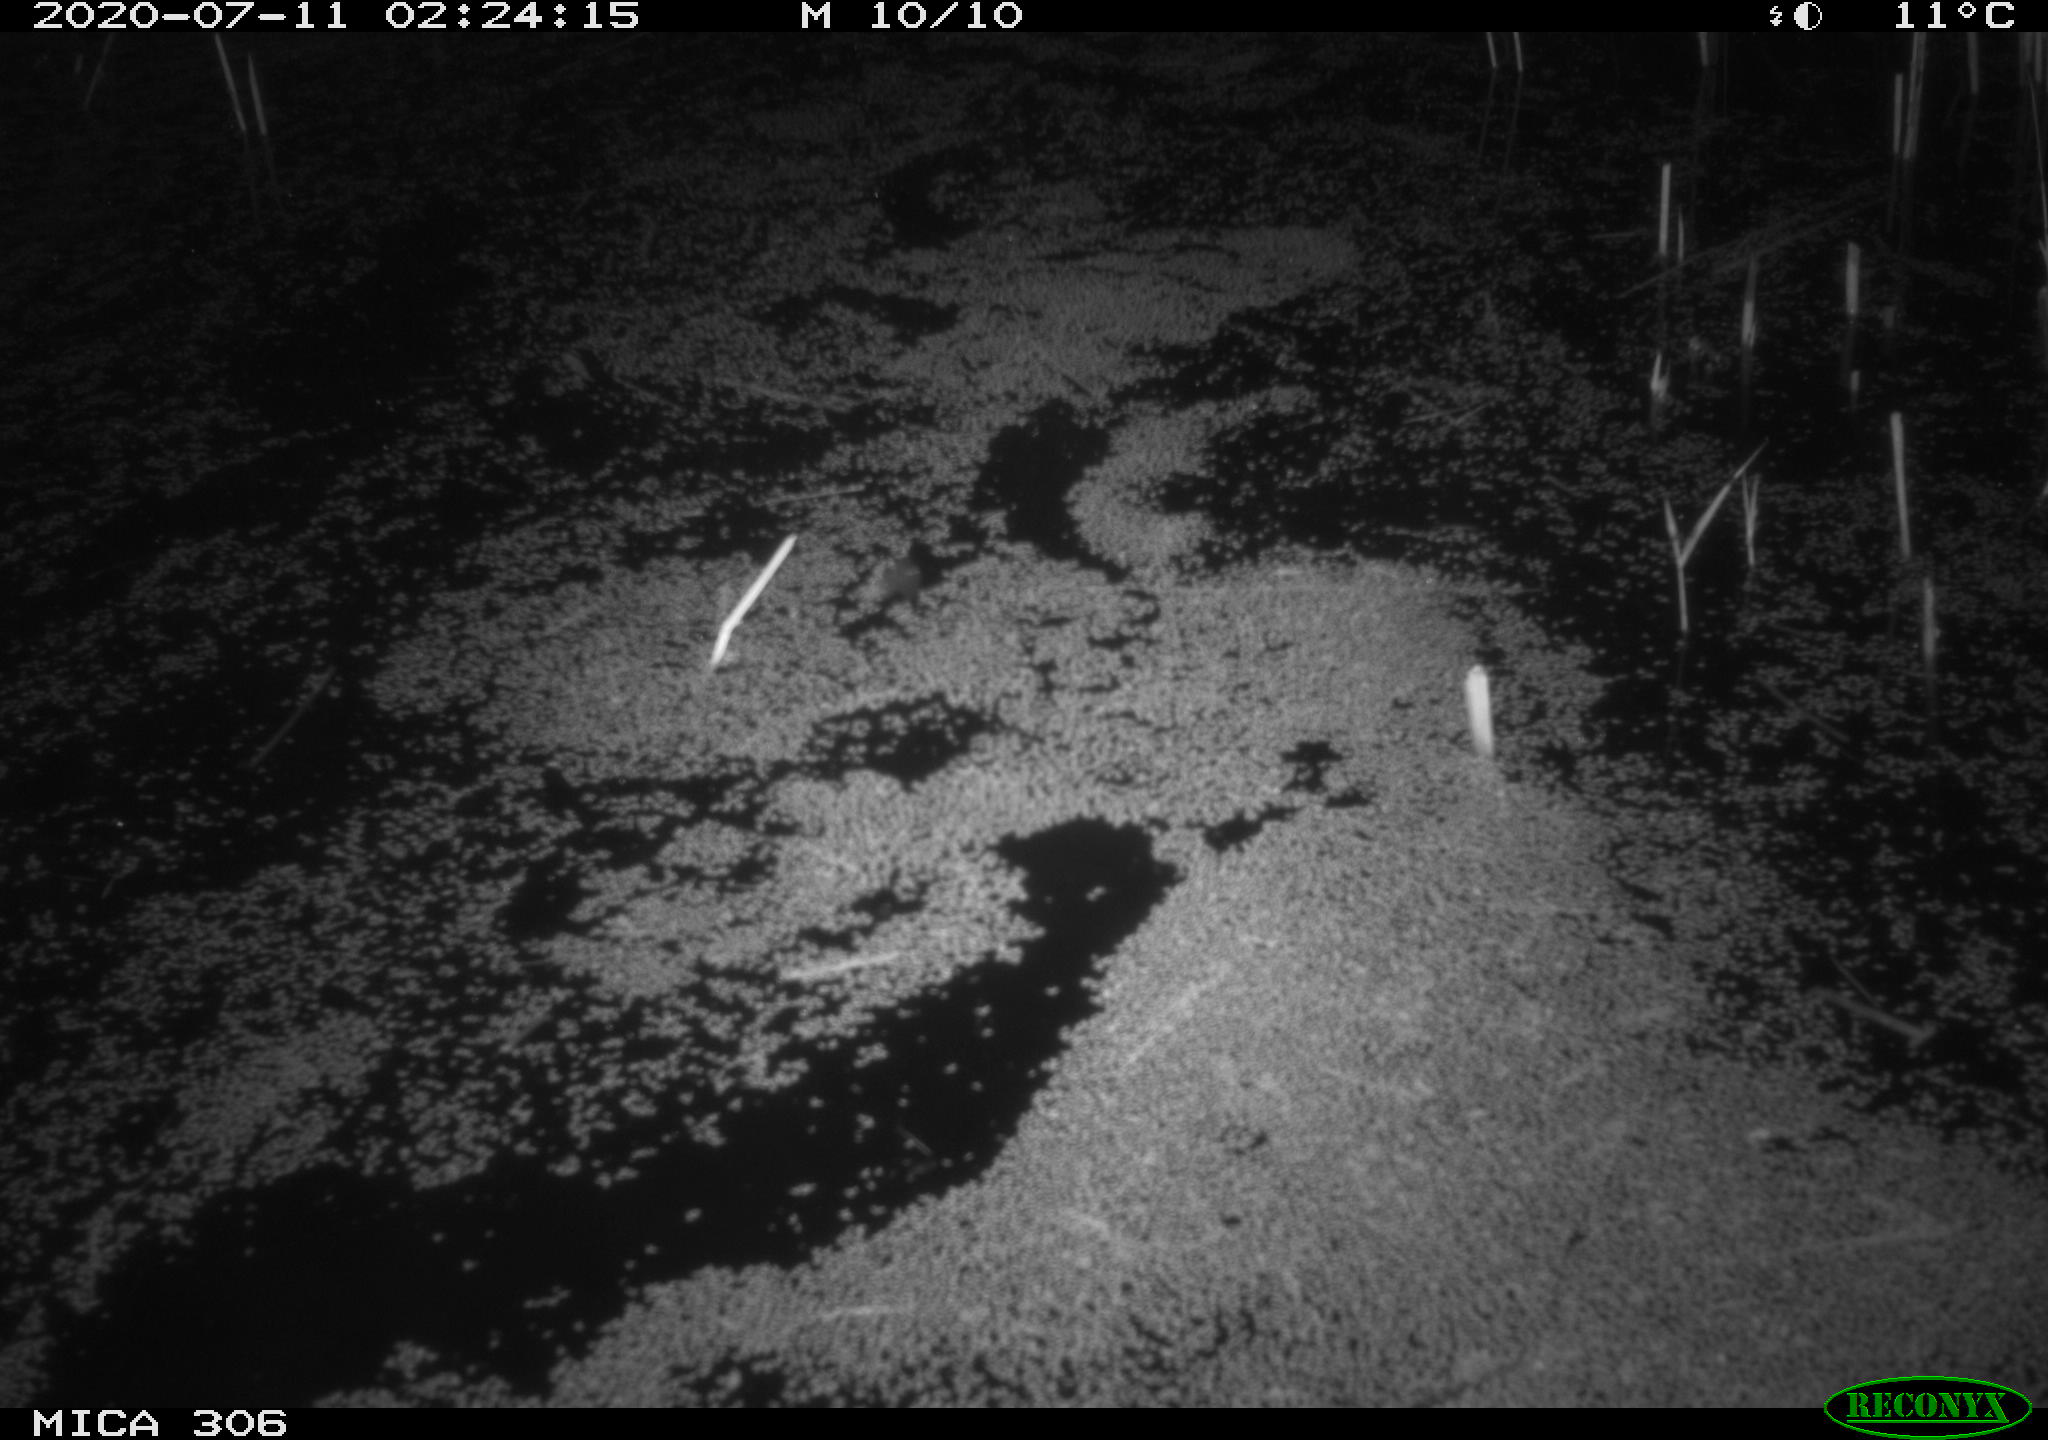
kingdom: Animalia
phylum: Chordata
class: Mammalia
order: Rodentia
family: Cricetidae
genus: Ondatra
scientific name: Ondatra zibethicus
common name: Muskrat
